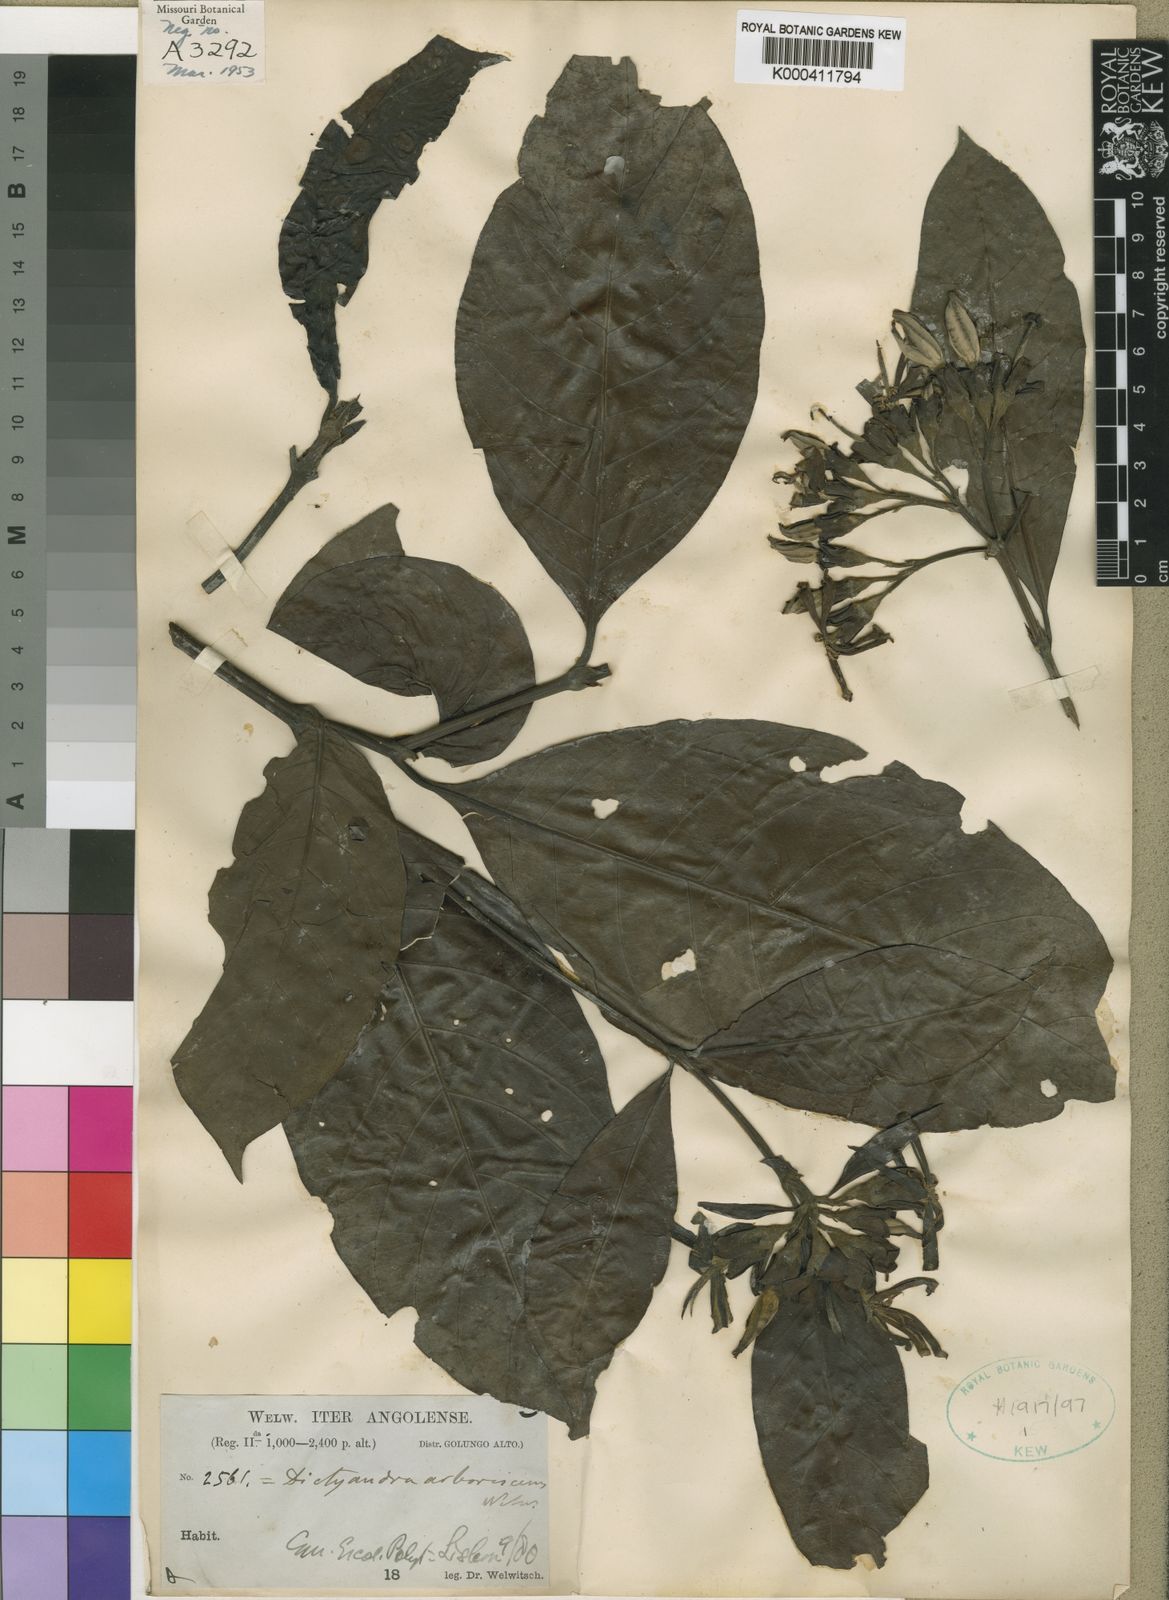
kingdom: Plantae
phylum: Tracheophyta
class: Magnoliopsida
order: Gentianales
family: Rubiaceae
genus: Leptactina
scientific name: Leptactina arborescens
